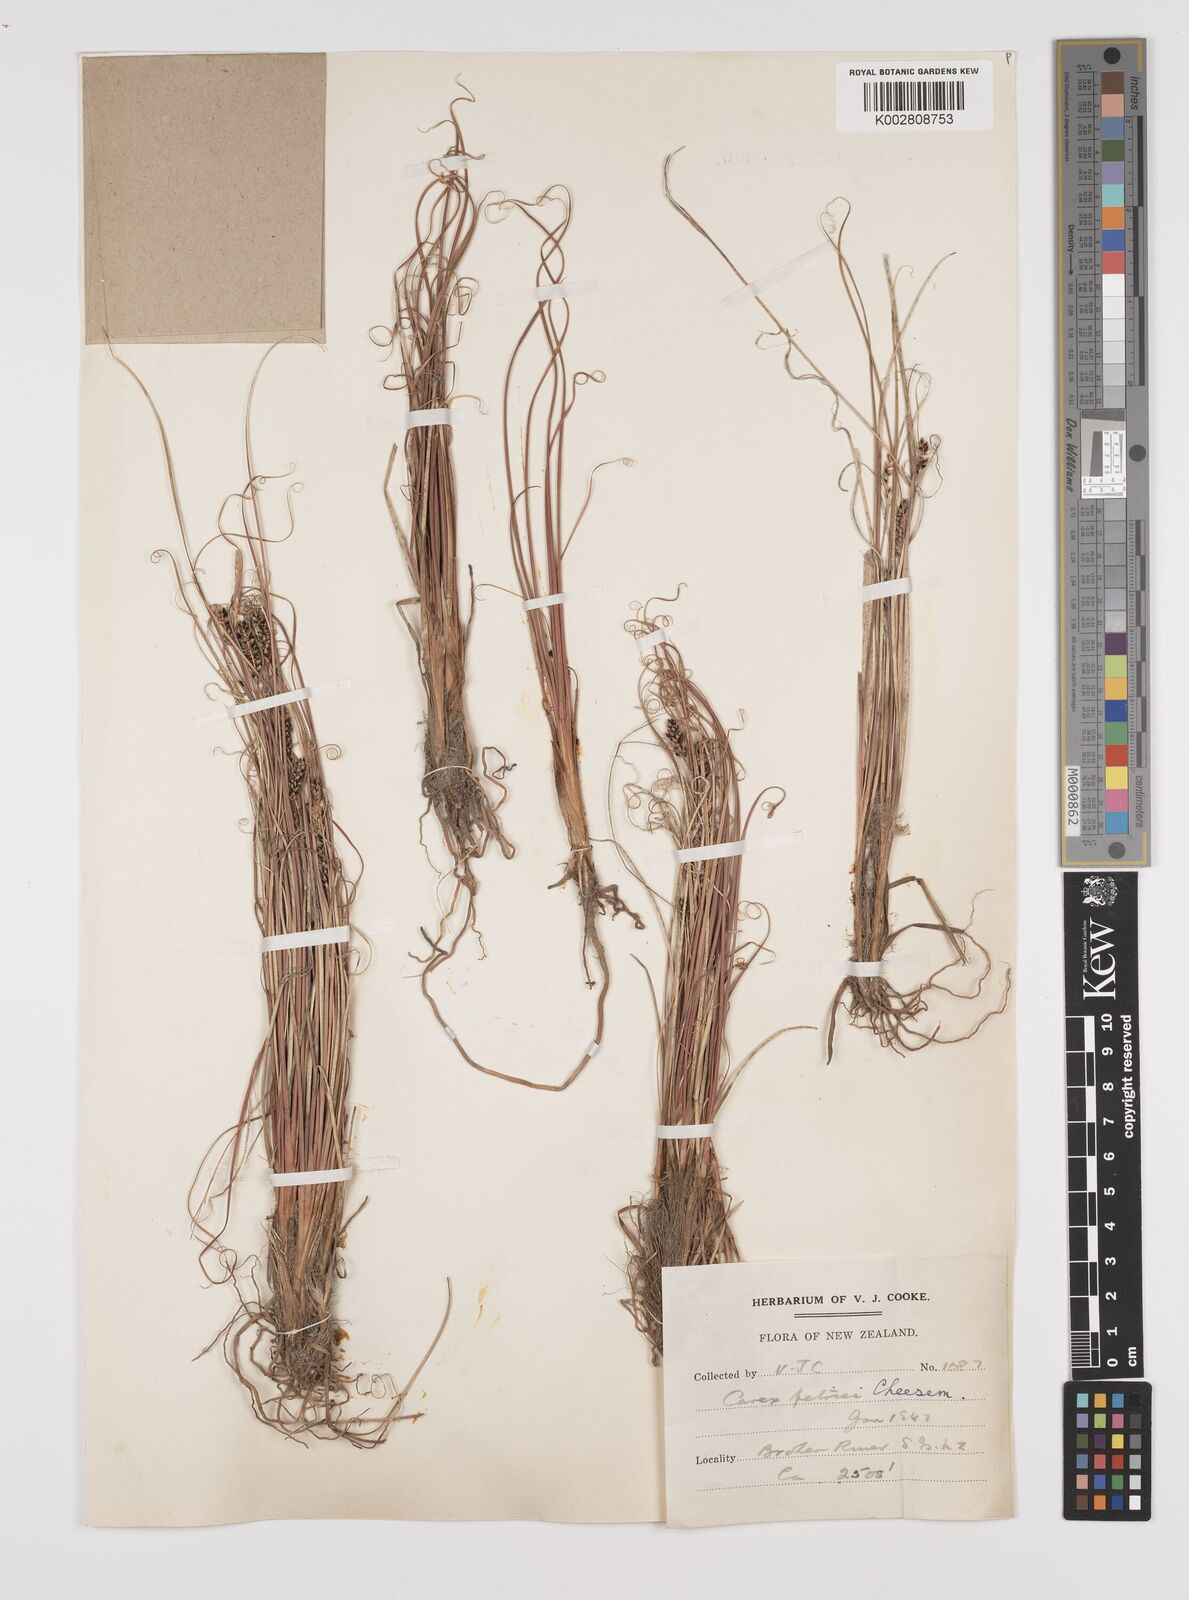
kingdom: Plantae
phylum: Tracheophyta
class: Liliopsida
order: Poales
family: Cyperaceae
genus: Carex
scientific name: Carex petriei
